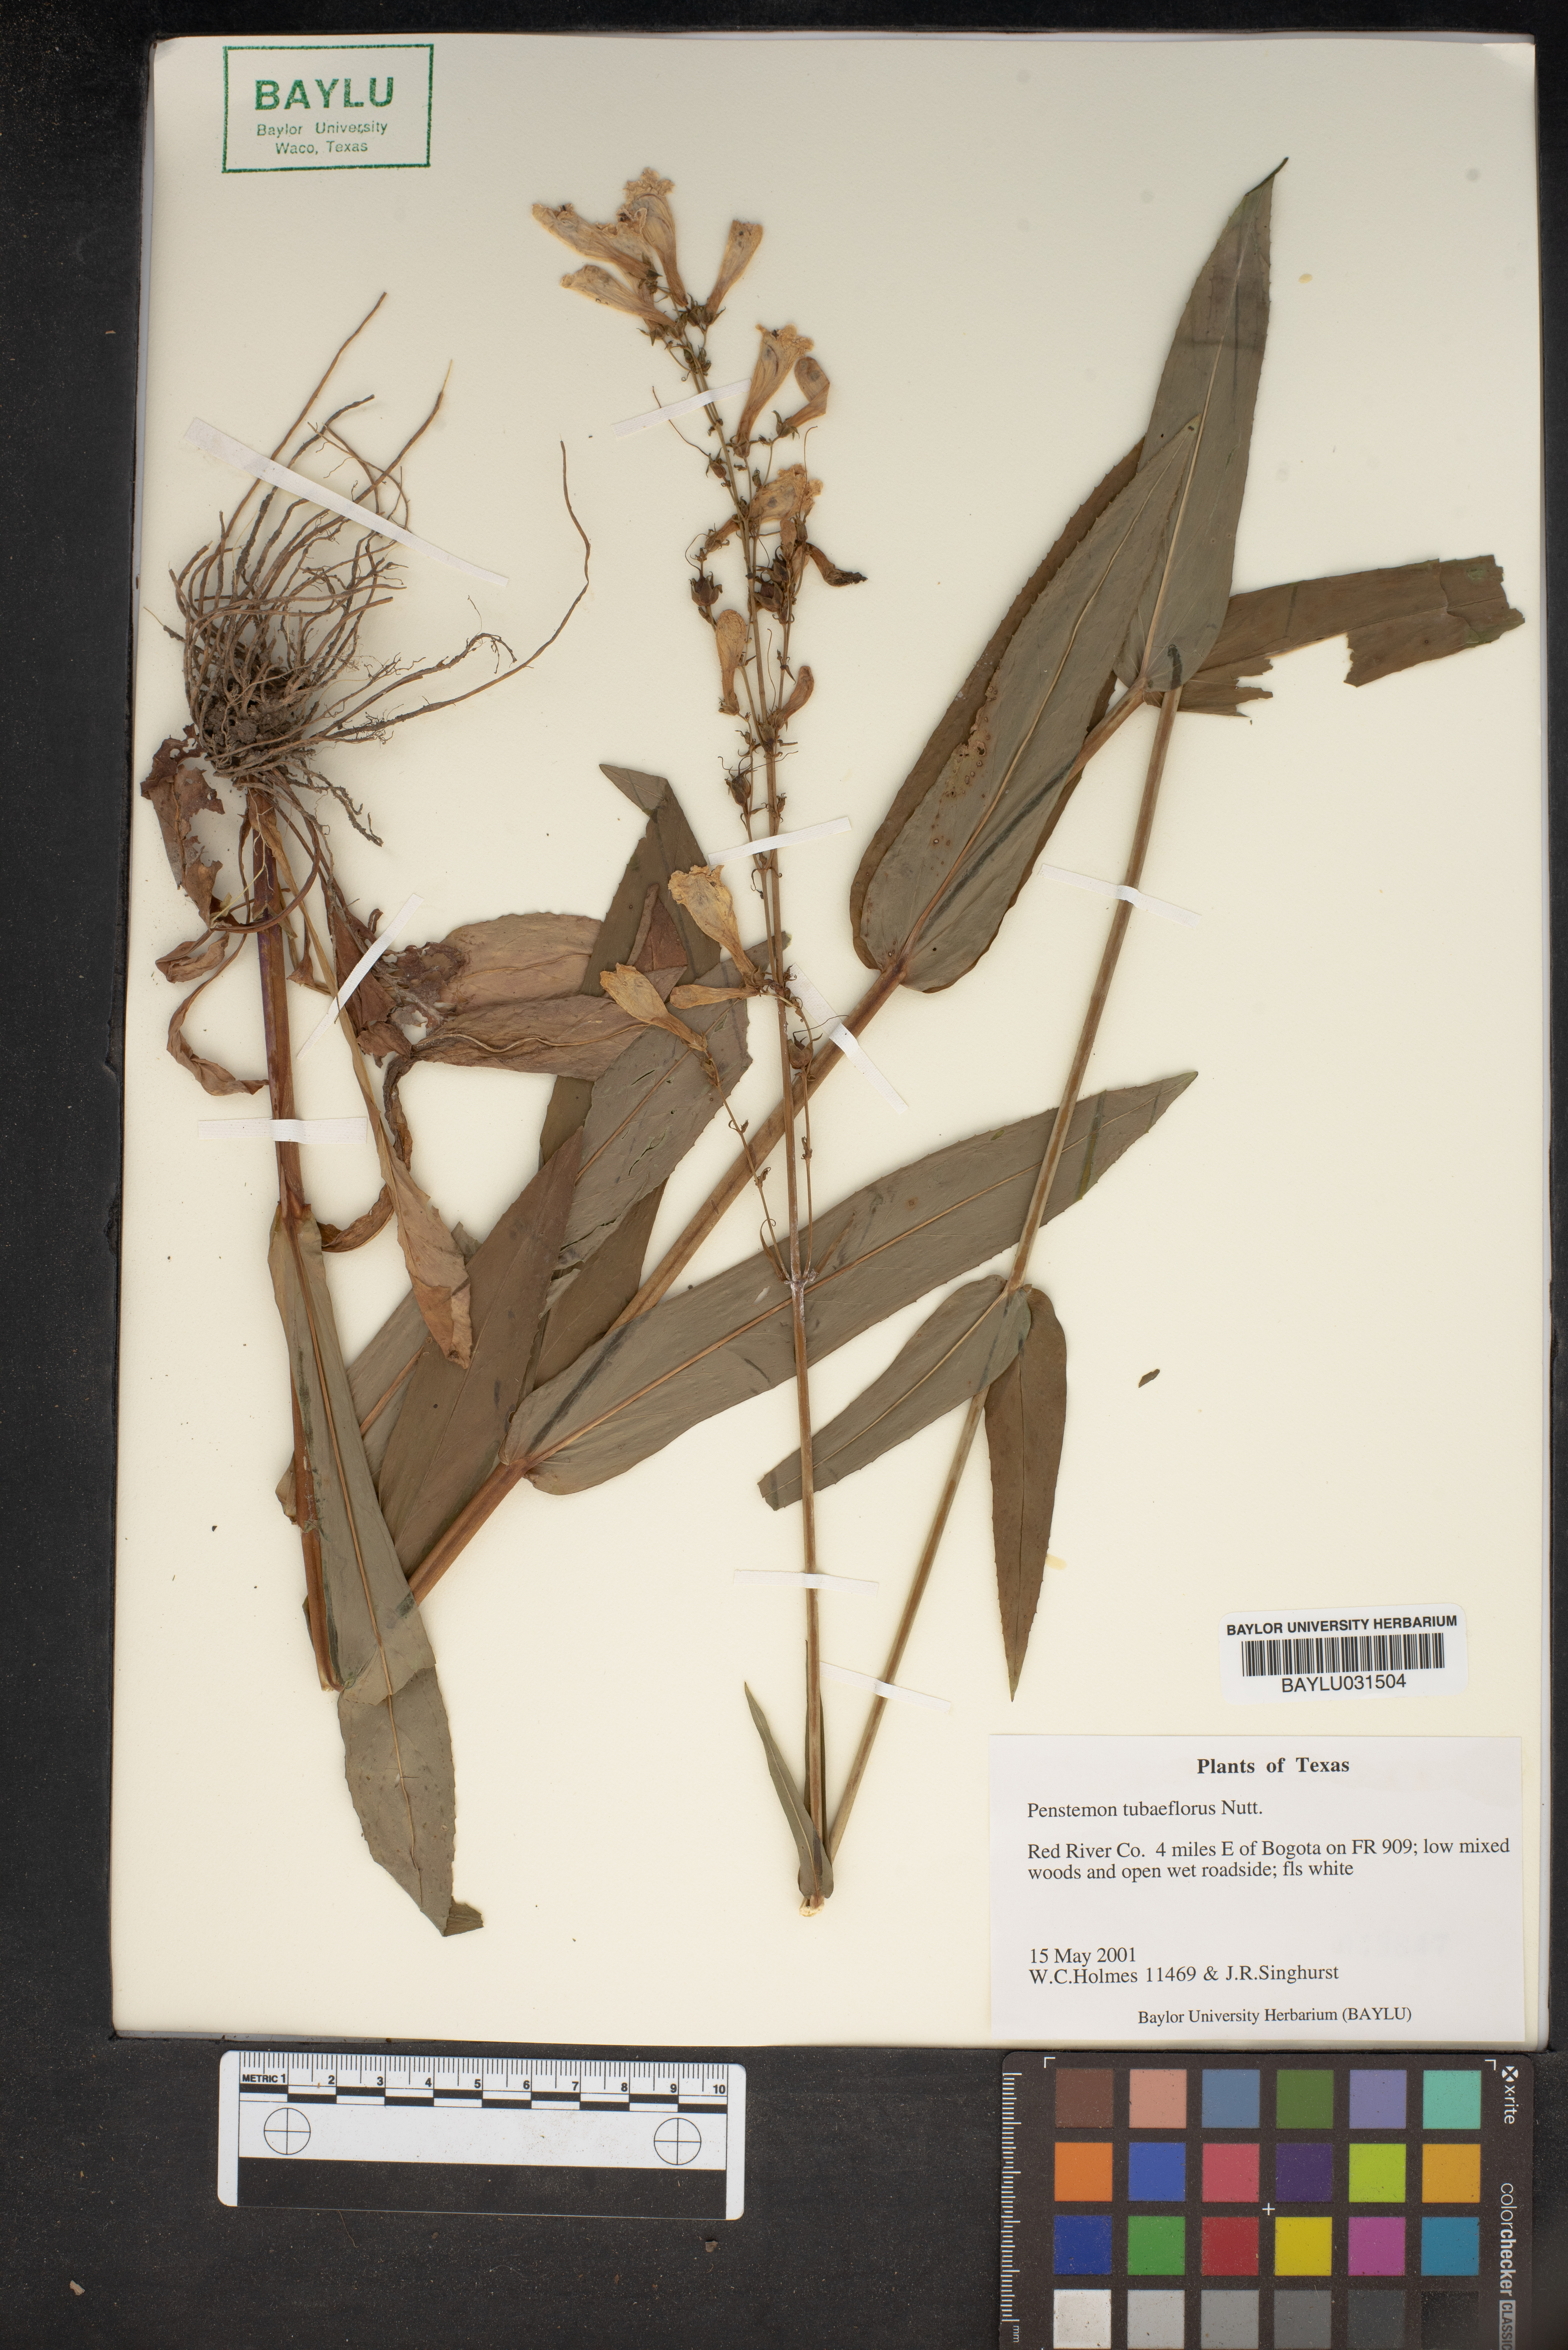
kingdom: Plantae
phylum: Tracheophyta
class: Magnoliopsida
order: Lamiales
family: Plantaginaceae
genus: Penstemon
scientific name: Penstemon tubaeflorus
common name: White wand beardtongue
